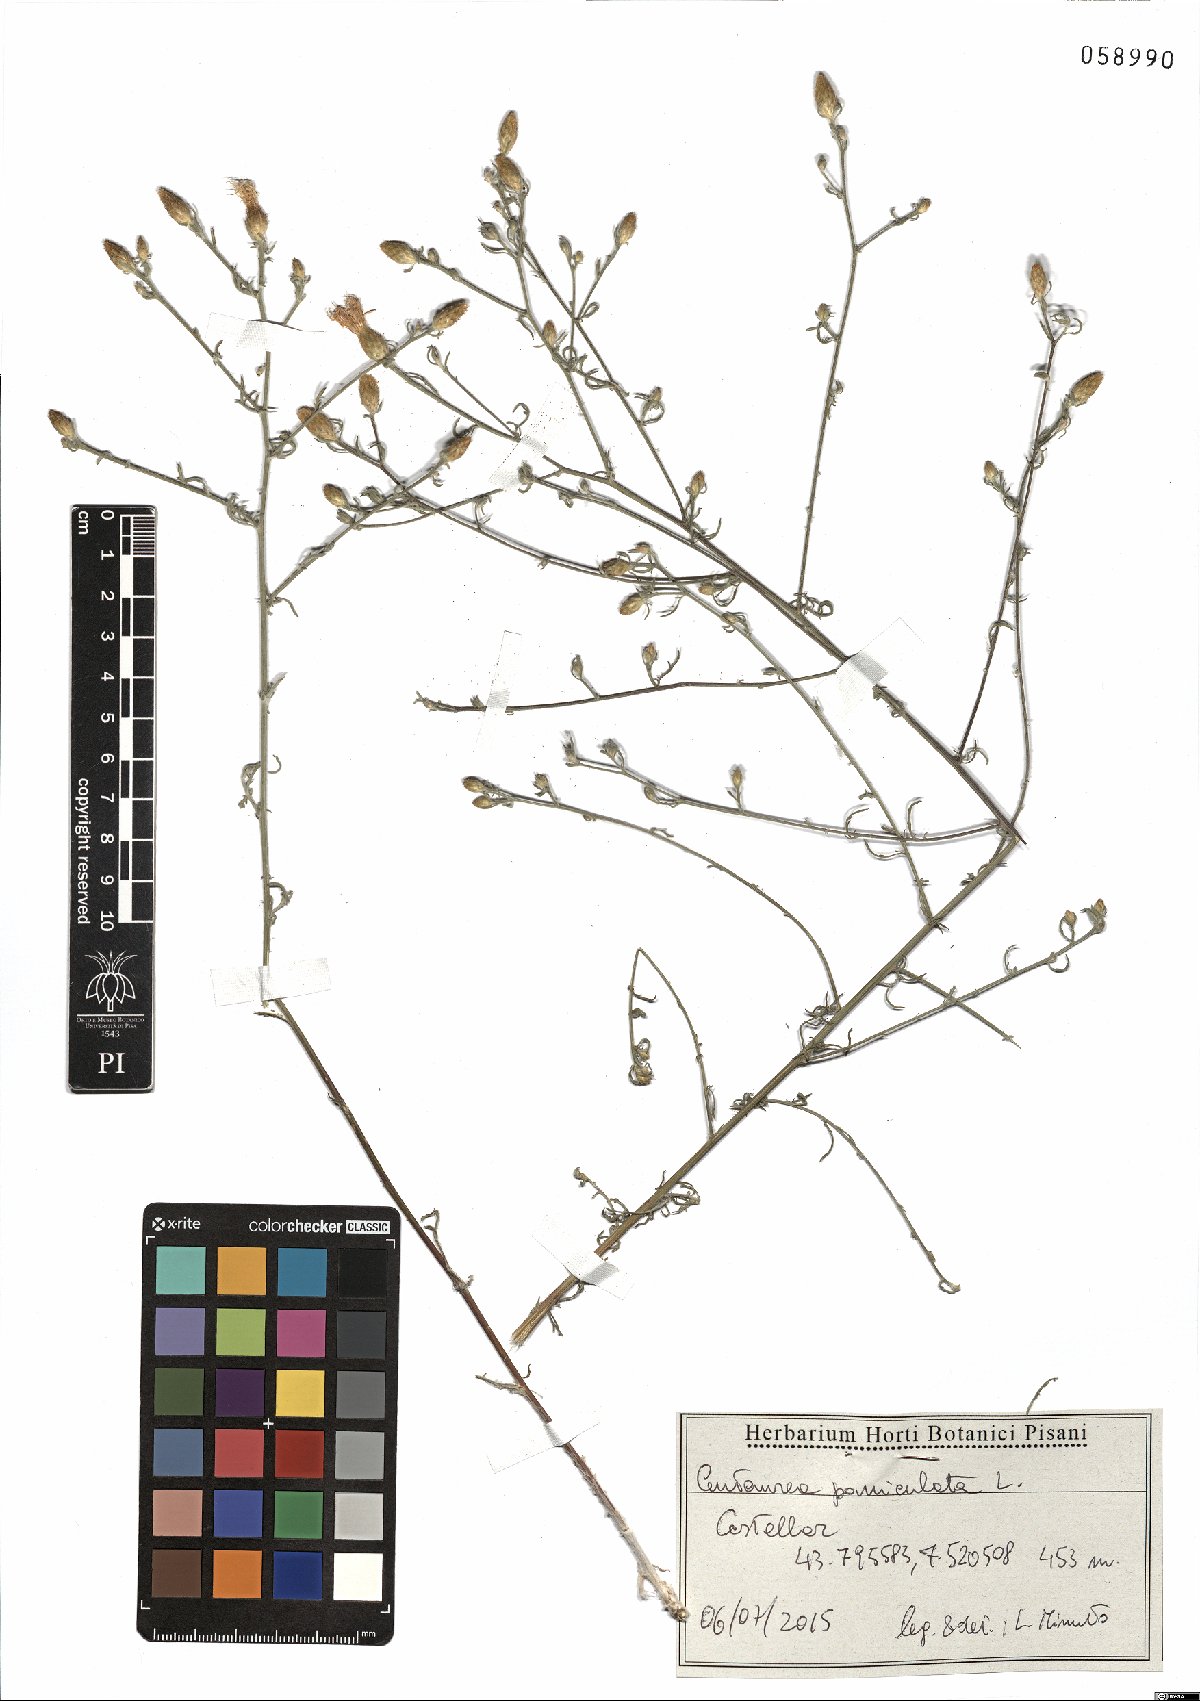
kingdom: Plantae
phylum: Tracheophyta
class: Magnoliopsida
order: Asterales
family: Asteraceae
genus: Centaurea
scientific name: Centaurea paniculata
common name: Jersey knapweed
